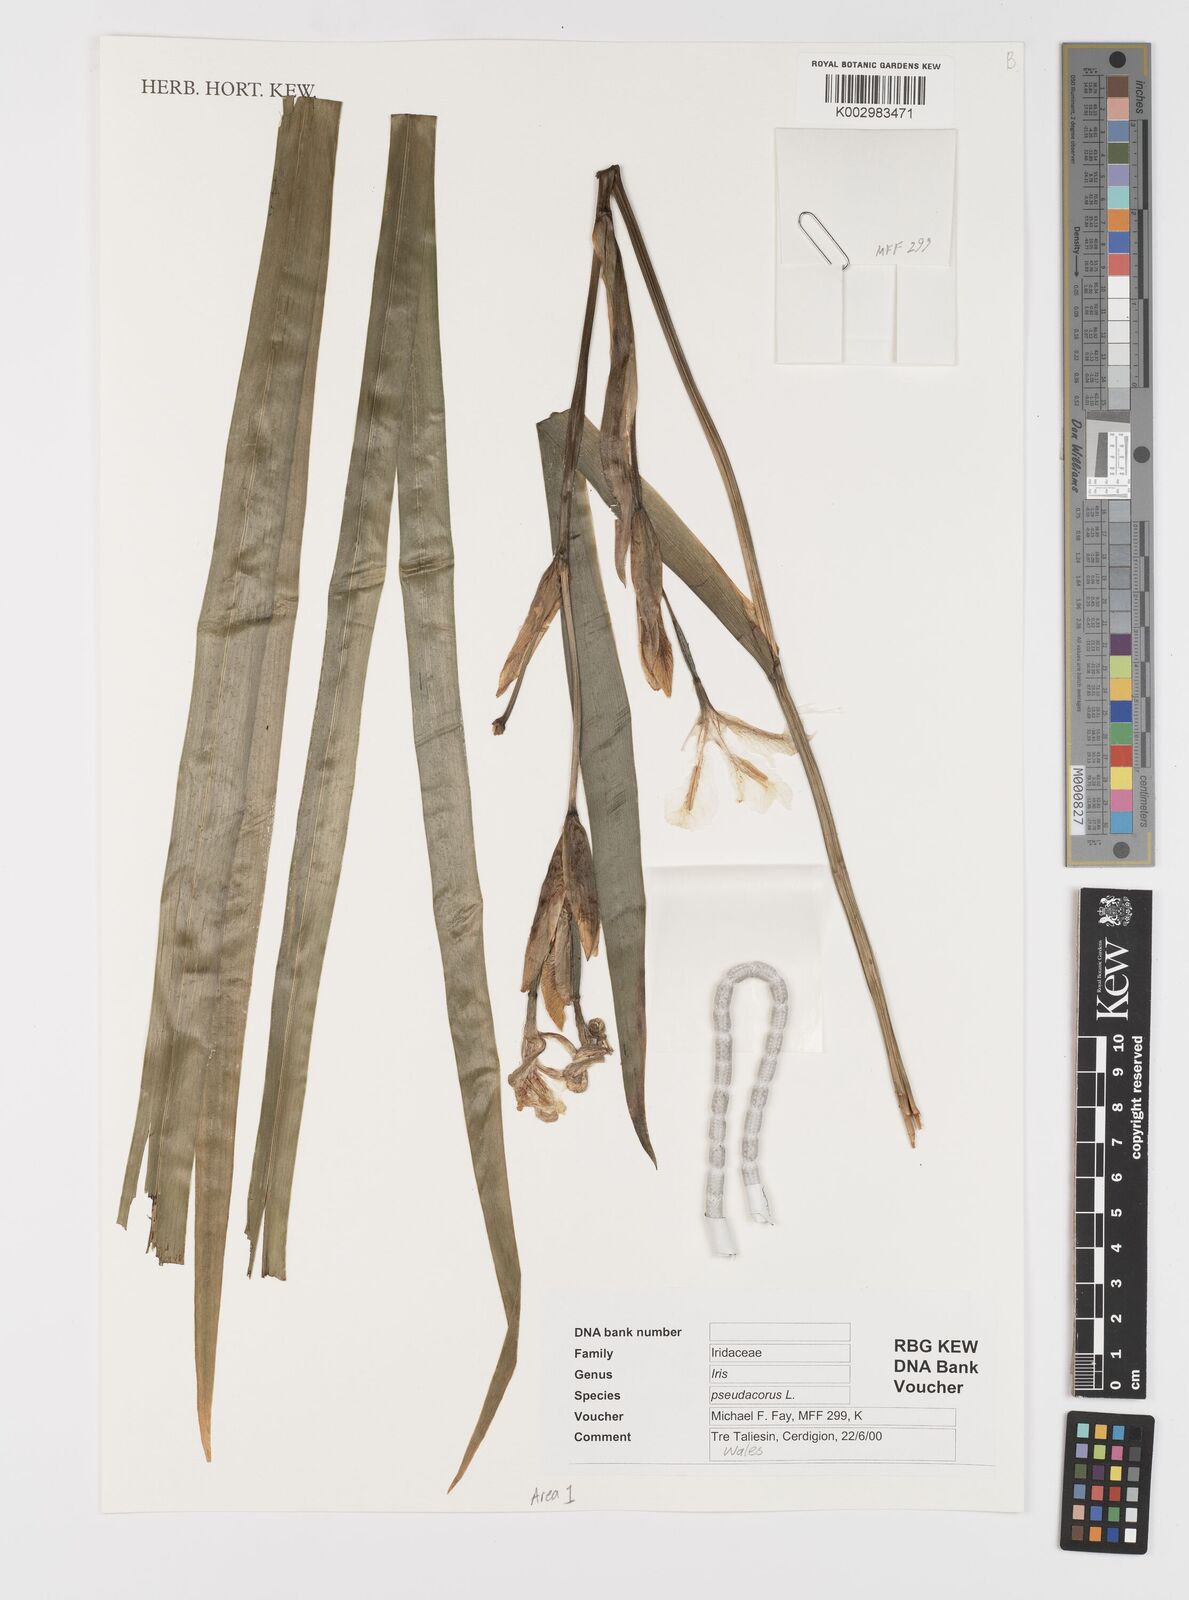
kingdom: Plantae
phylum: Tracheophyta
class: Liliopsida
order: Asparagales
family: Iridaceae
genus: Iris
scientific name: Iris pseudacorus
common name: Yellow flag
